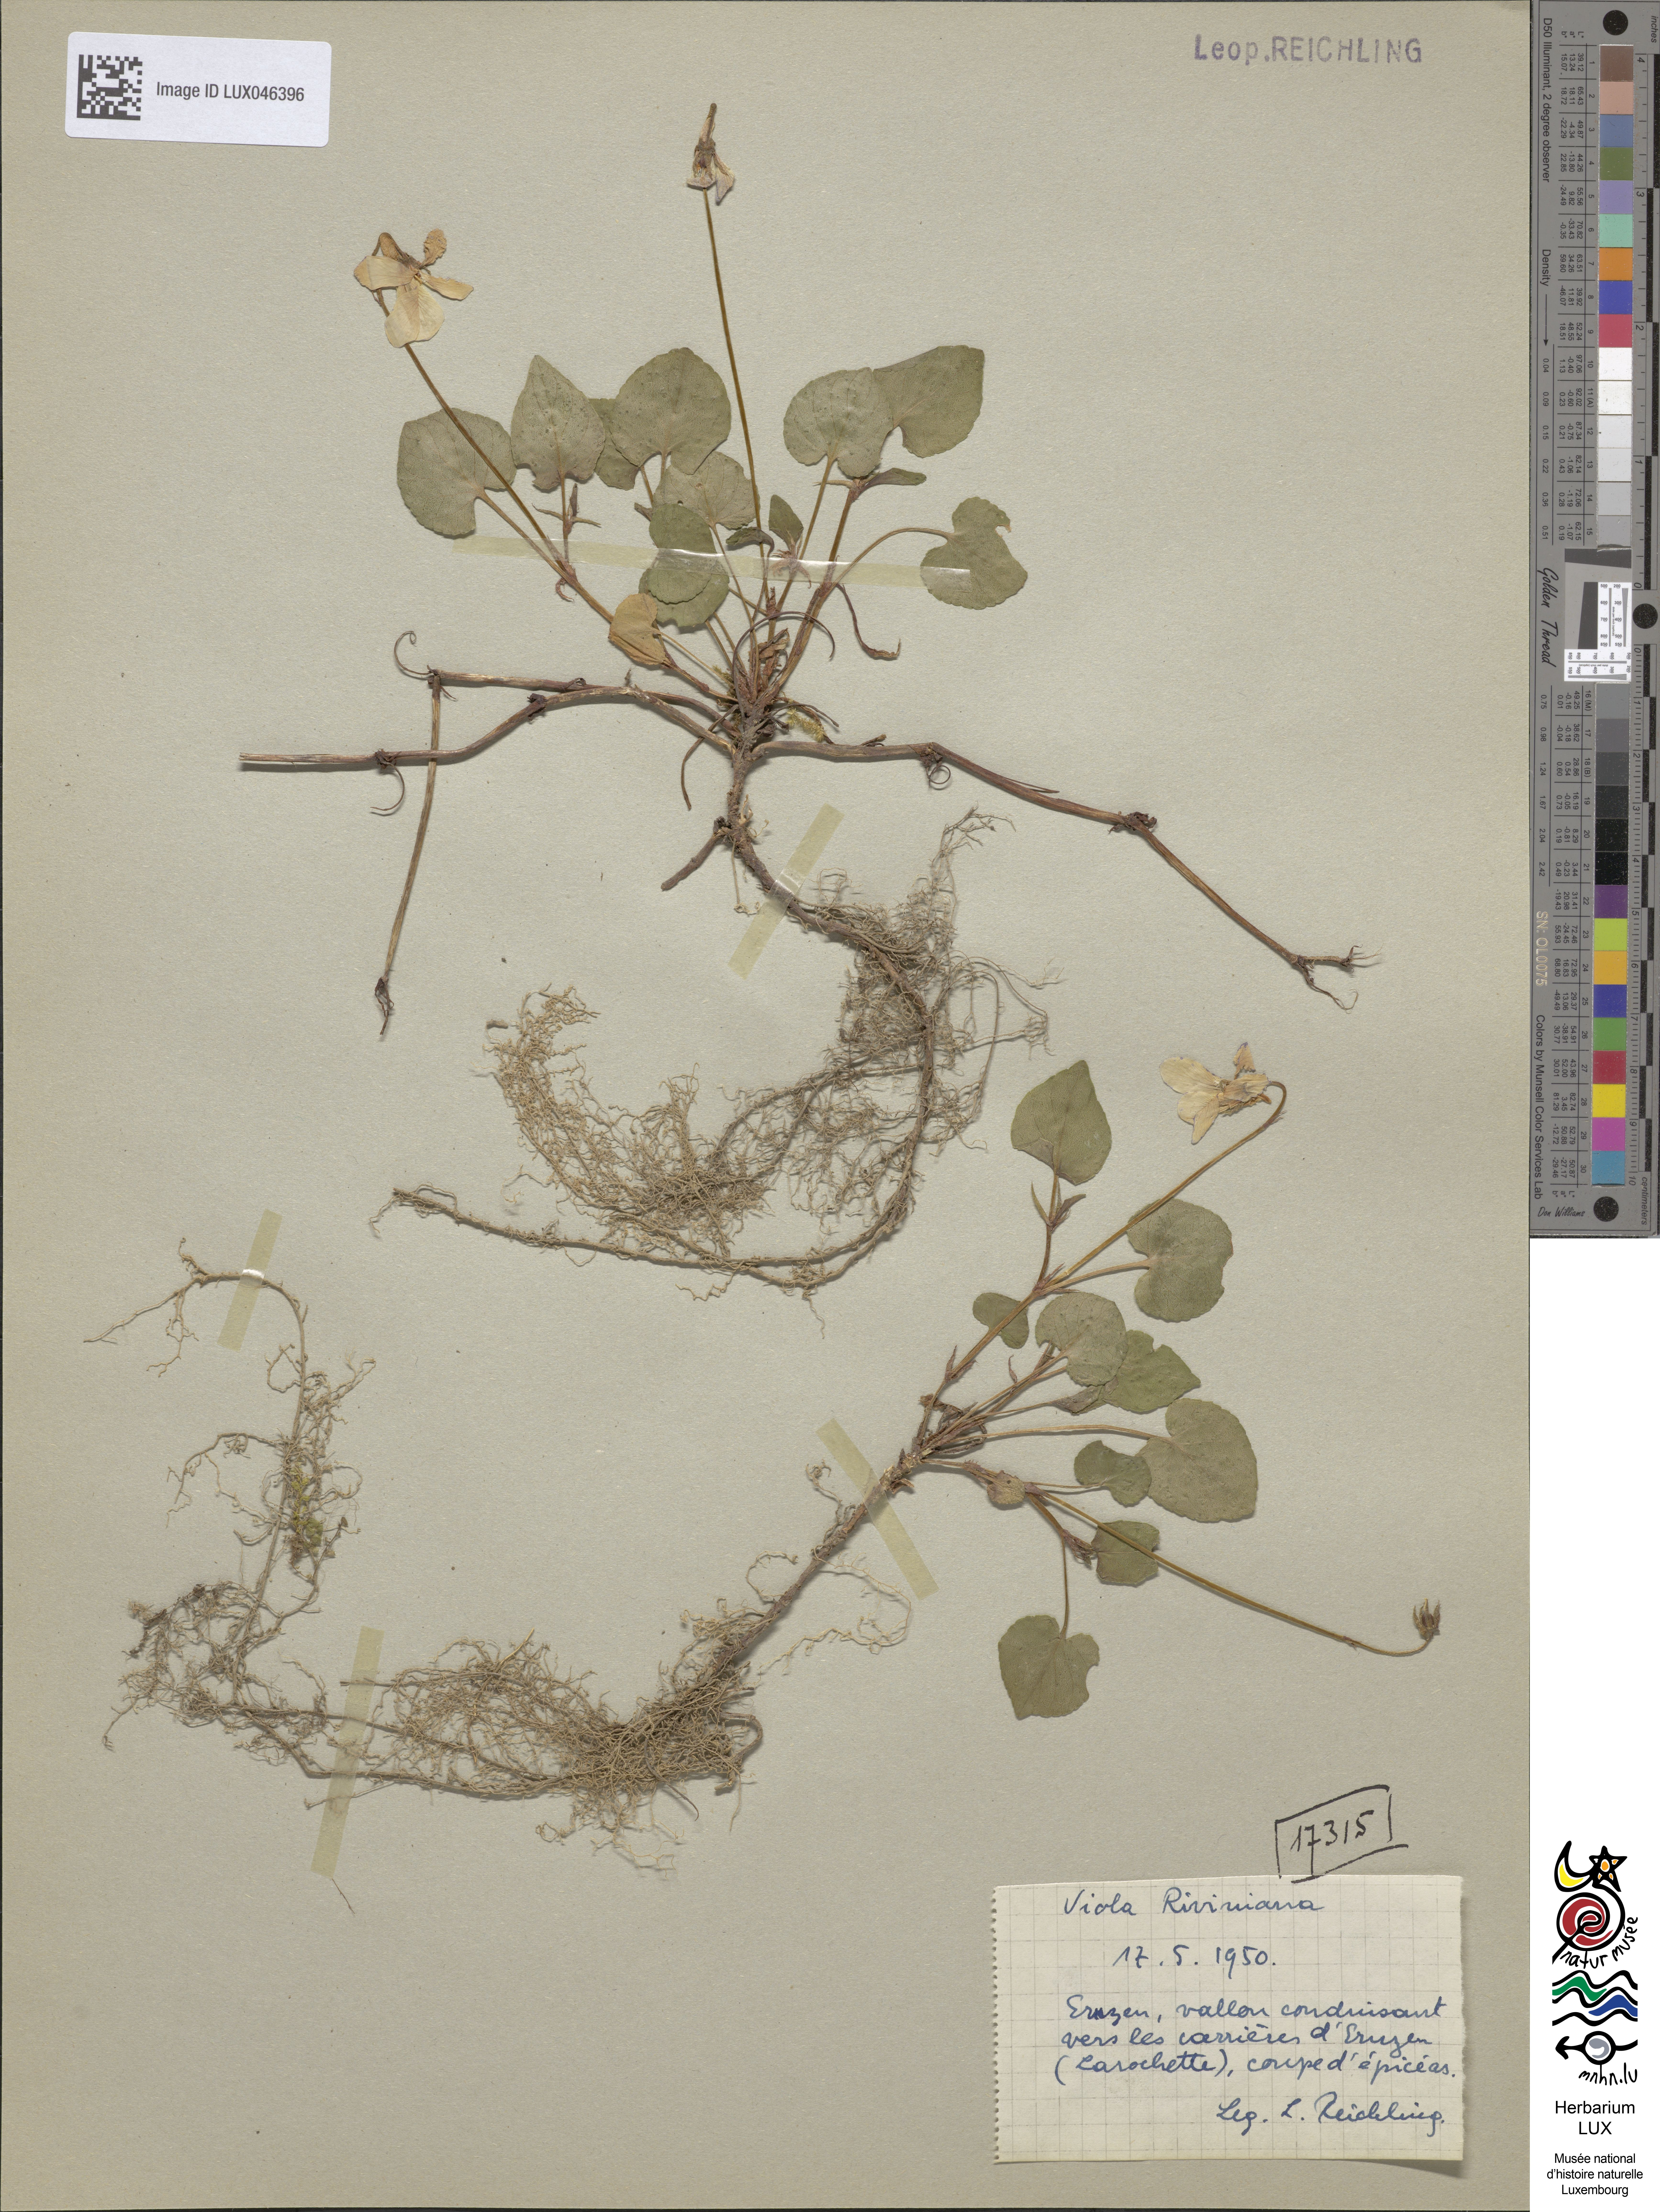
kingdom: Plantae
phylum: Tracheophyta
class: Magnoliopsida
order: Malpighiales
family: Violaceae
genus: Viola
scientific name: Viola riviniana
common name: Common dog-violet
